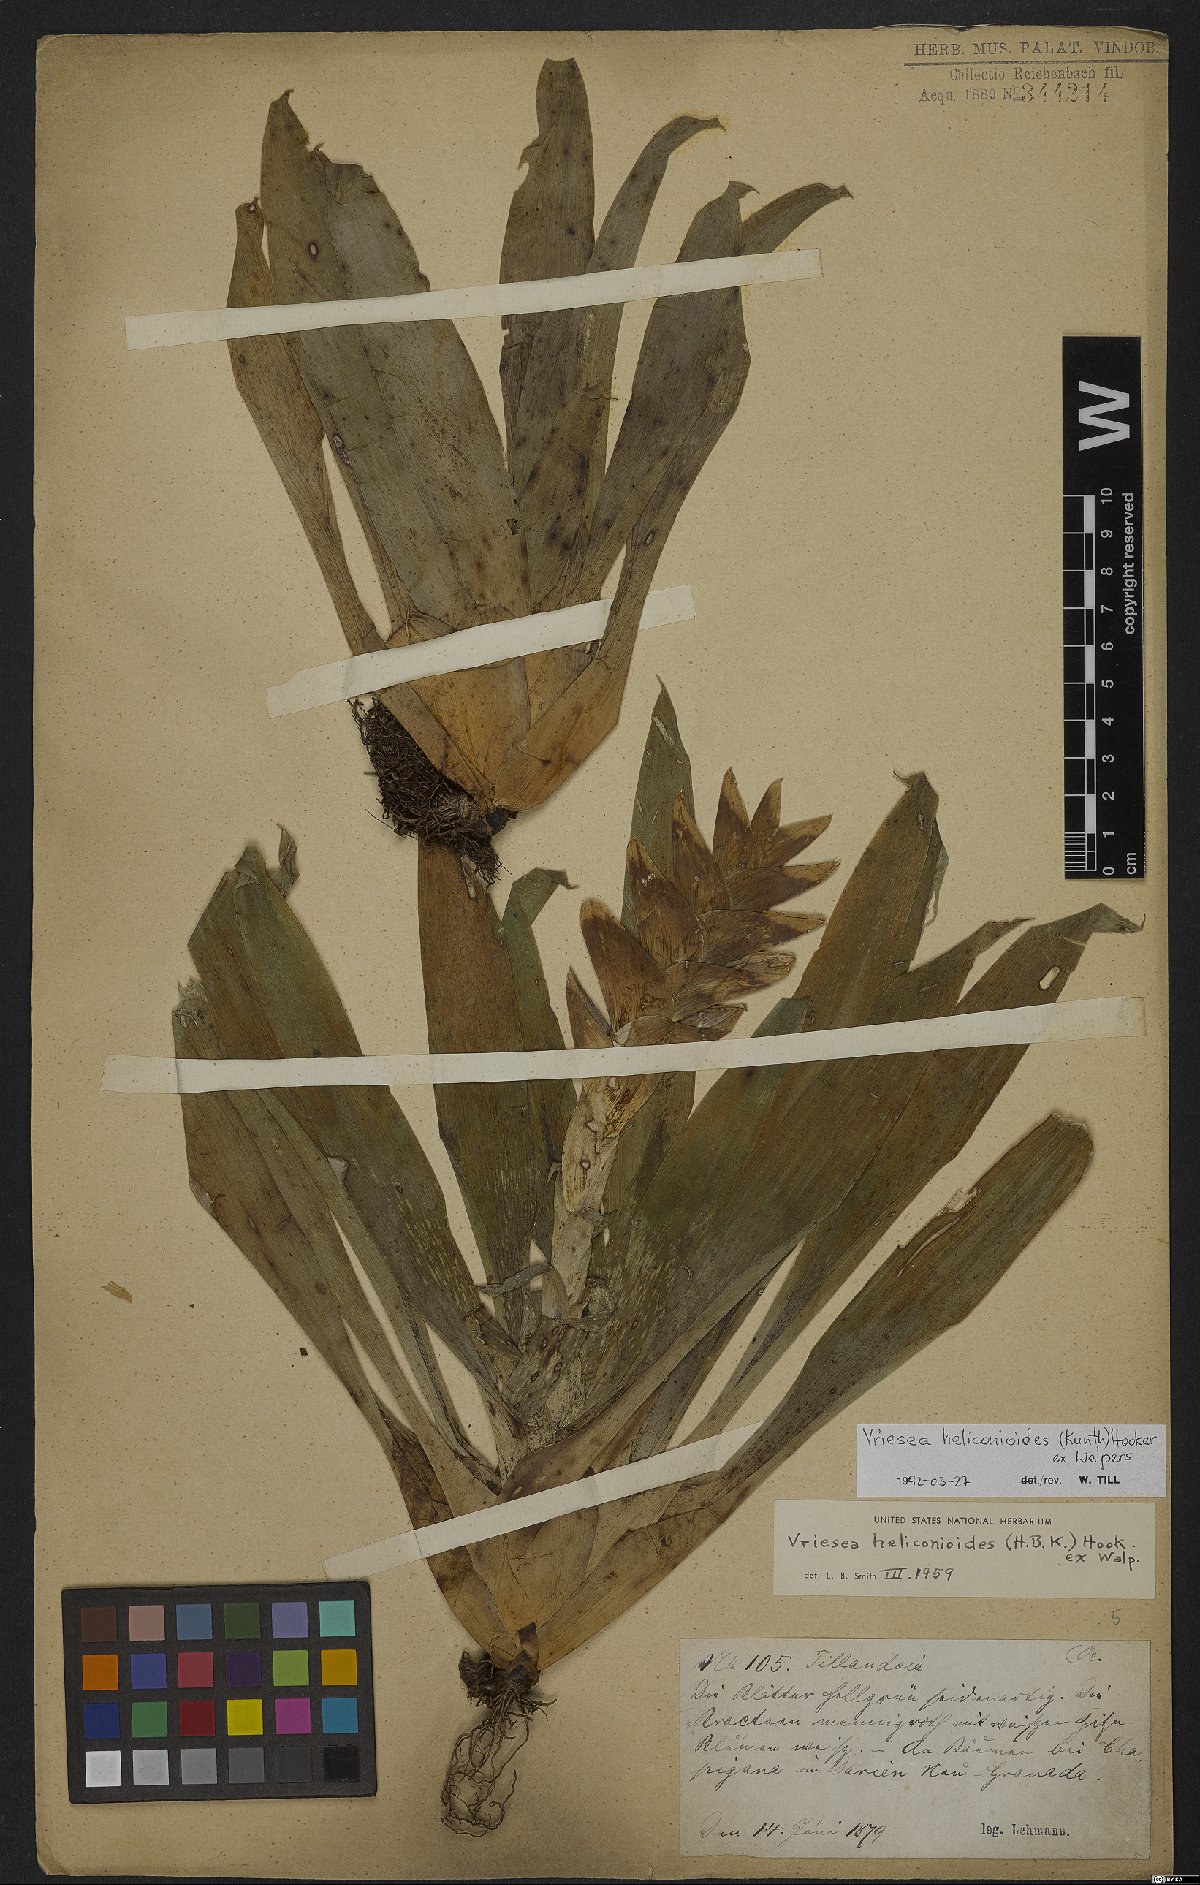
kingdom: Plantae
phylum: Tracheophyta
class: Liliopsida
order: Poales
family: Bromeliaceae
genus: Tillandsia
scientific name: Tillandsia heliconioides
